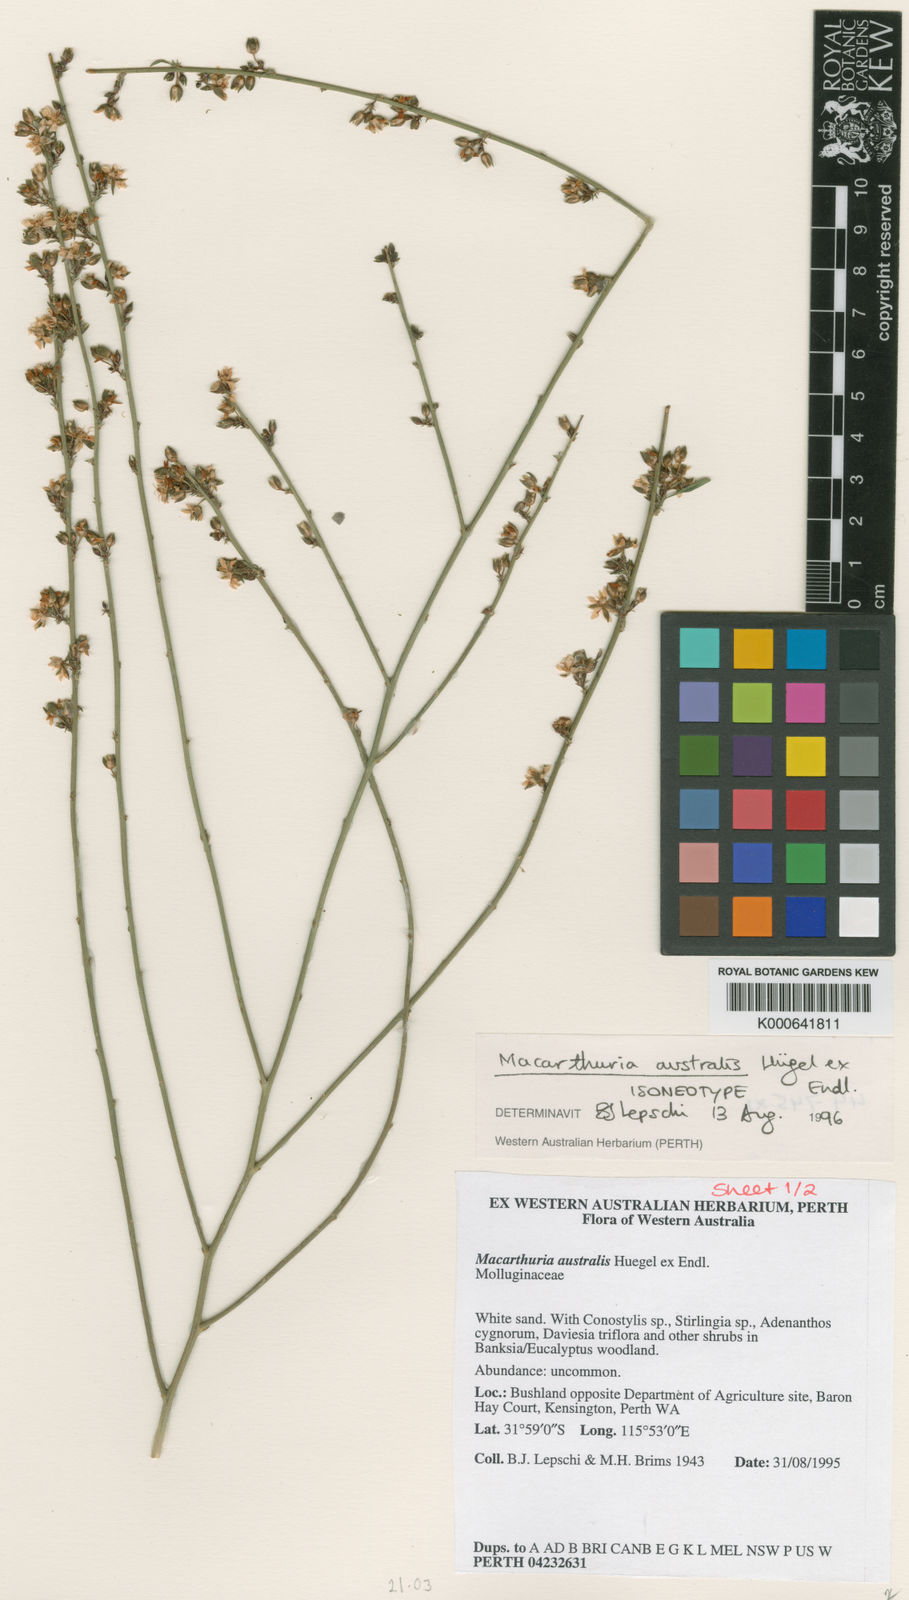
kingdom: Plantae
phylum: Tracheophyta
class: Magnoliopsida
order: Caryophyllales
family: Macarthuriaceae
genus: Macarthuria
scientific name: Macarthuria
